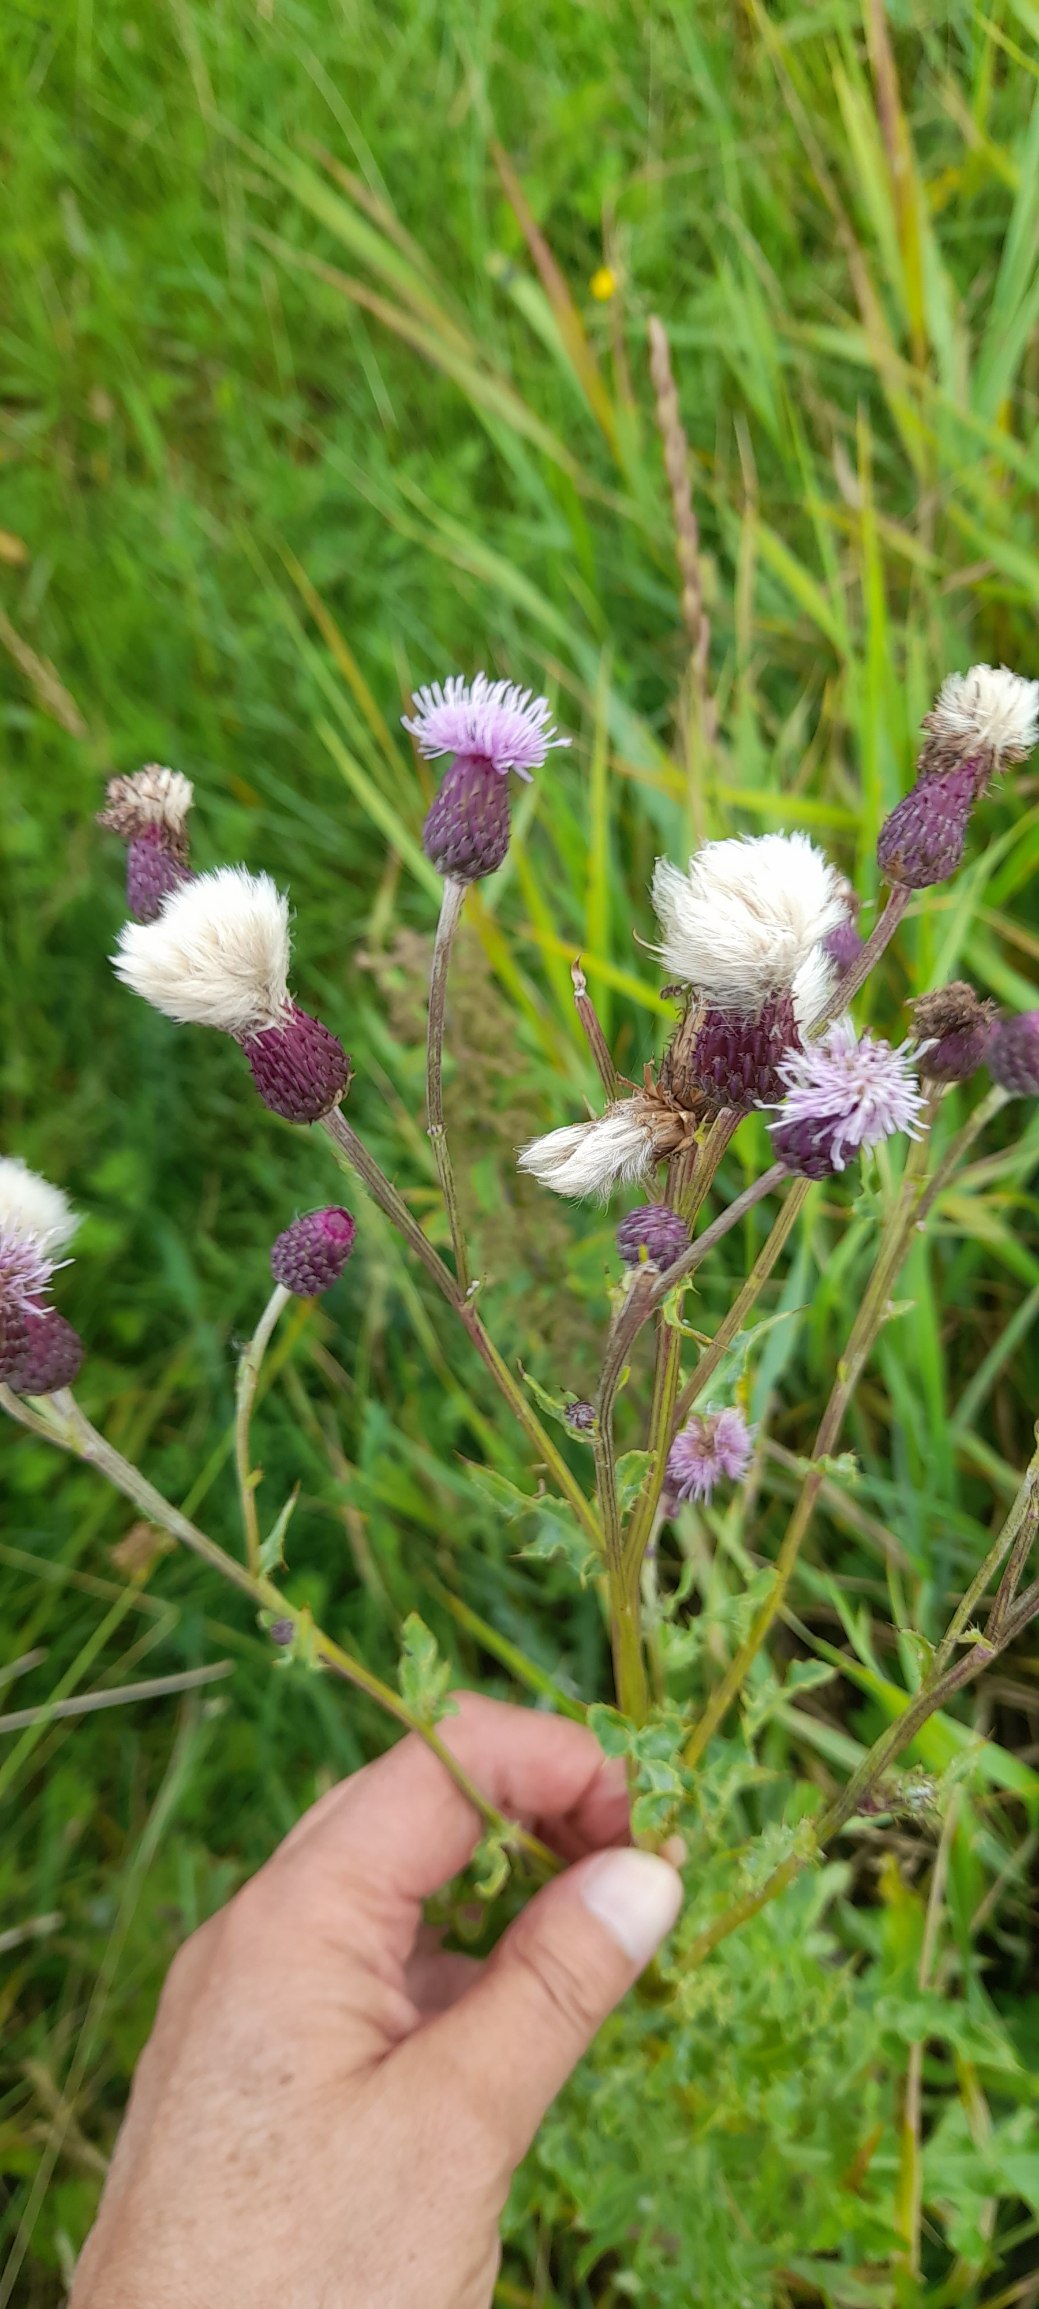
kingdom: Plantae
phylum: Tracheophyta
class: Magnoliopsida
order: Asterales
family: Asteraceae
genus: Cirsium
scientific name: Cirsium arvense
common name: Ager-tidsel
